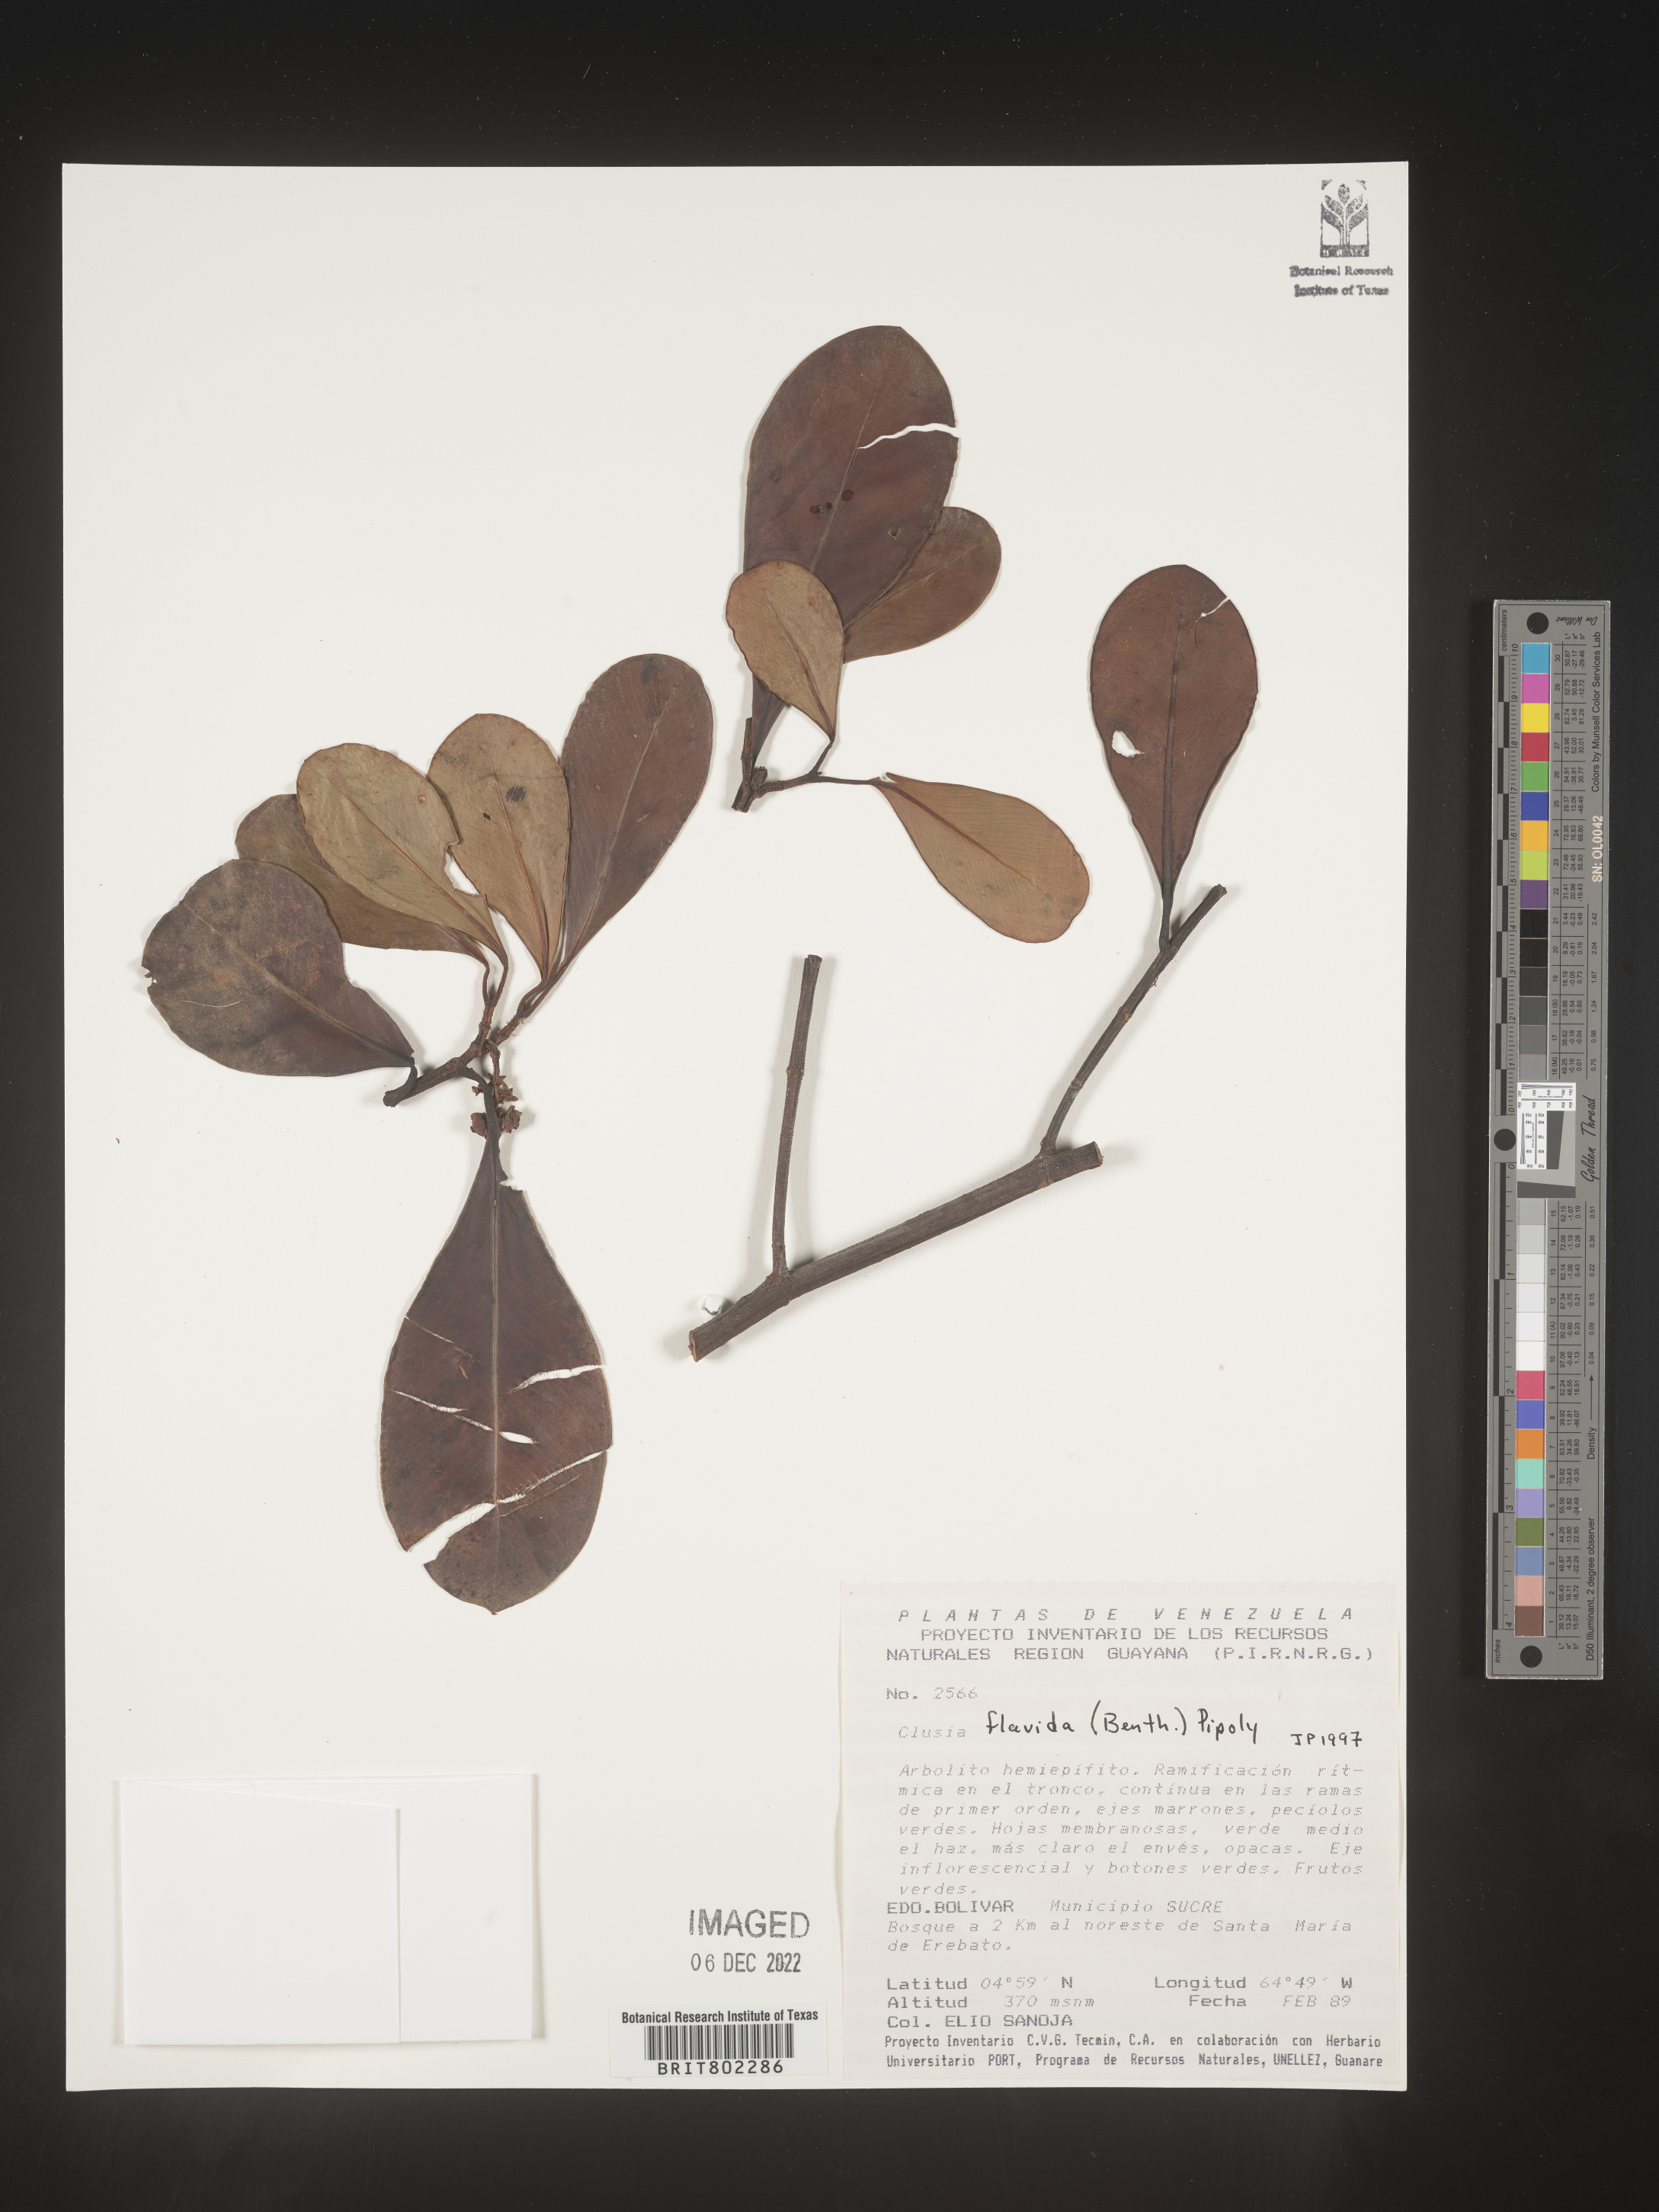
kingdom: Plantae
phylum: Tracheophyta
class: Magnoliopsida
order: Malpighiales
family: Clusiaceae
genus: Clusia
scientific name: Clusia flavida
